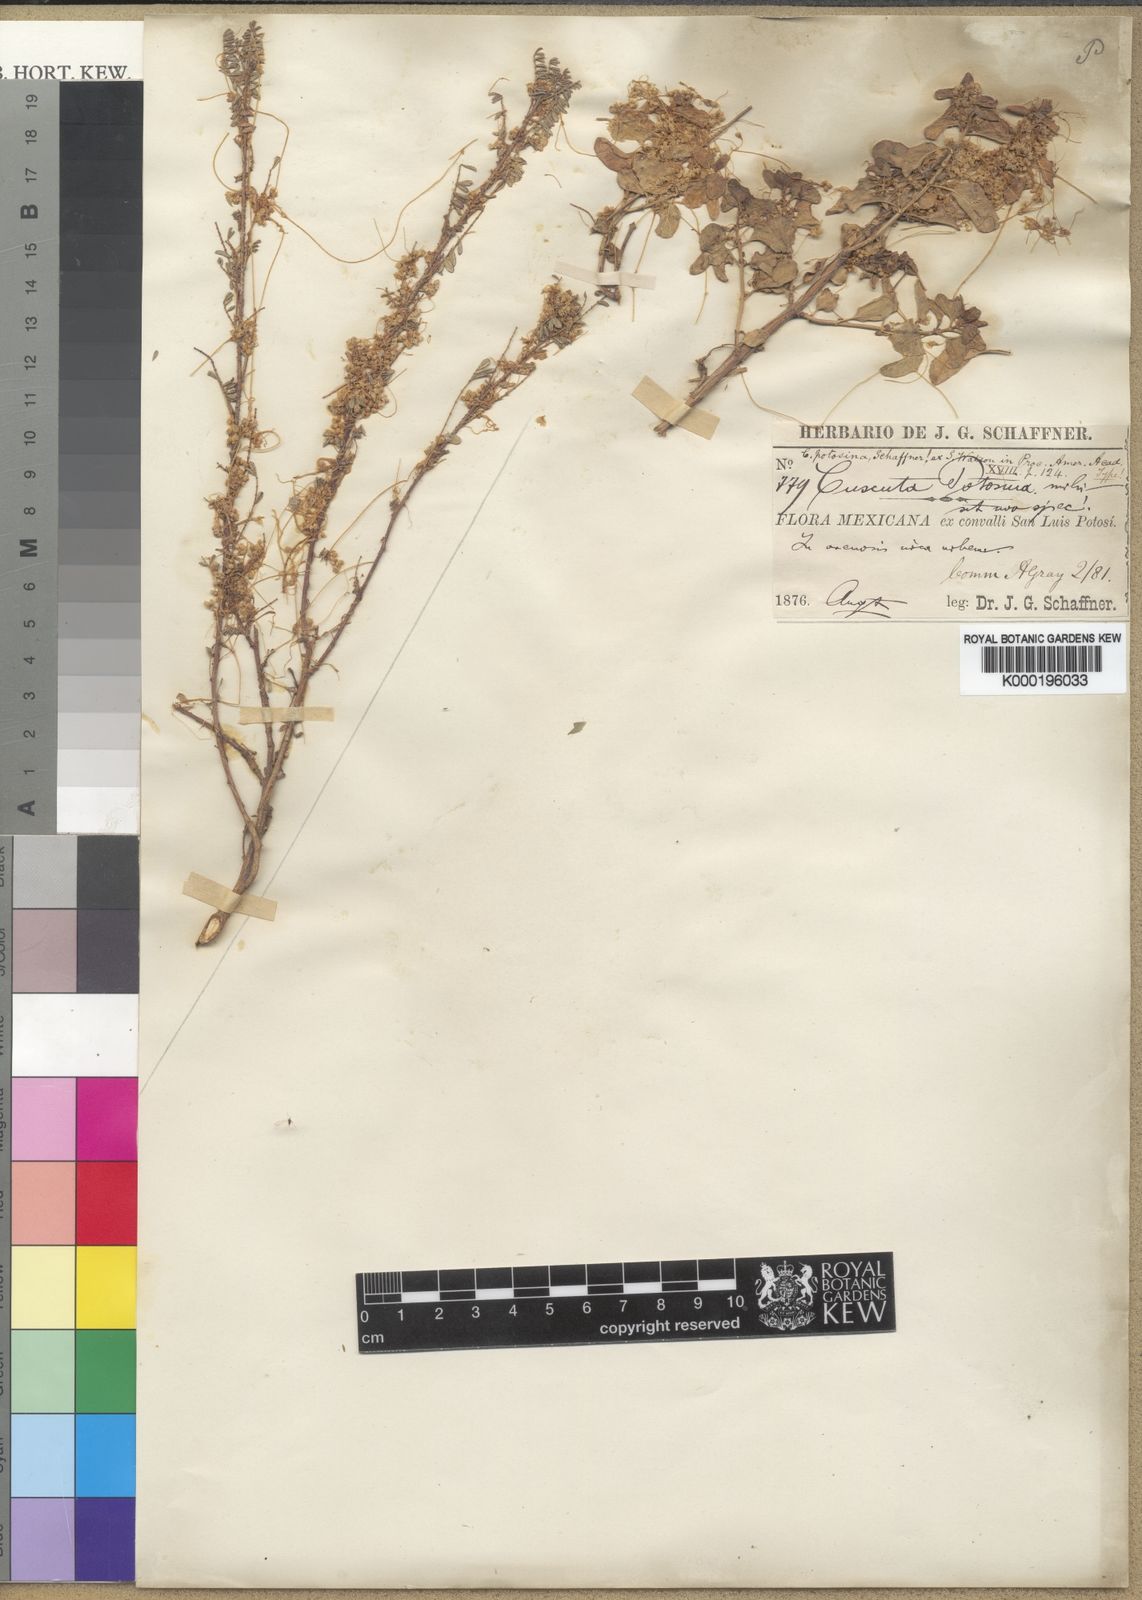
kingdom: Plantae
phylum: Tracheophyta
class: Magnoliopsida
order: Solanales
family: Convolvulaceae
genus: Cuscuta
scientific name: Cuscuta potosina
